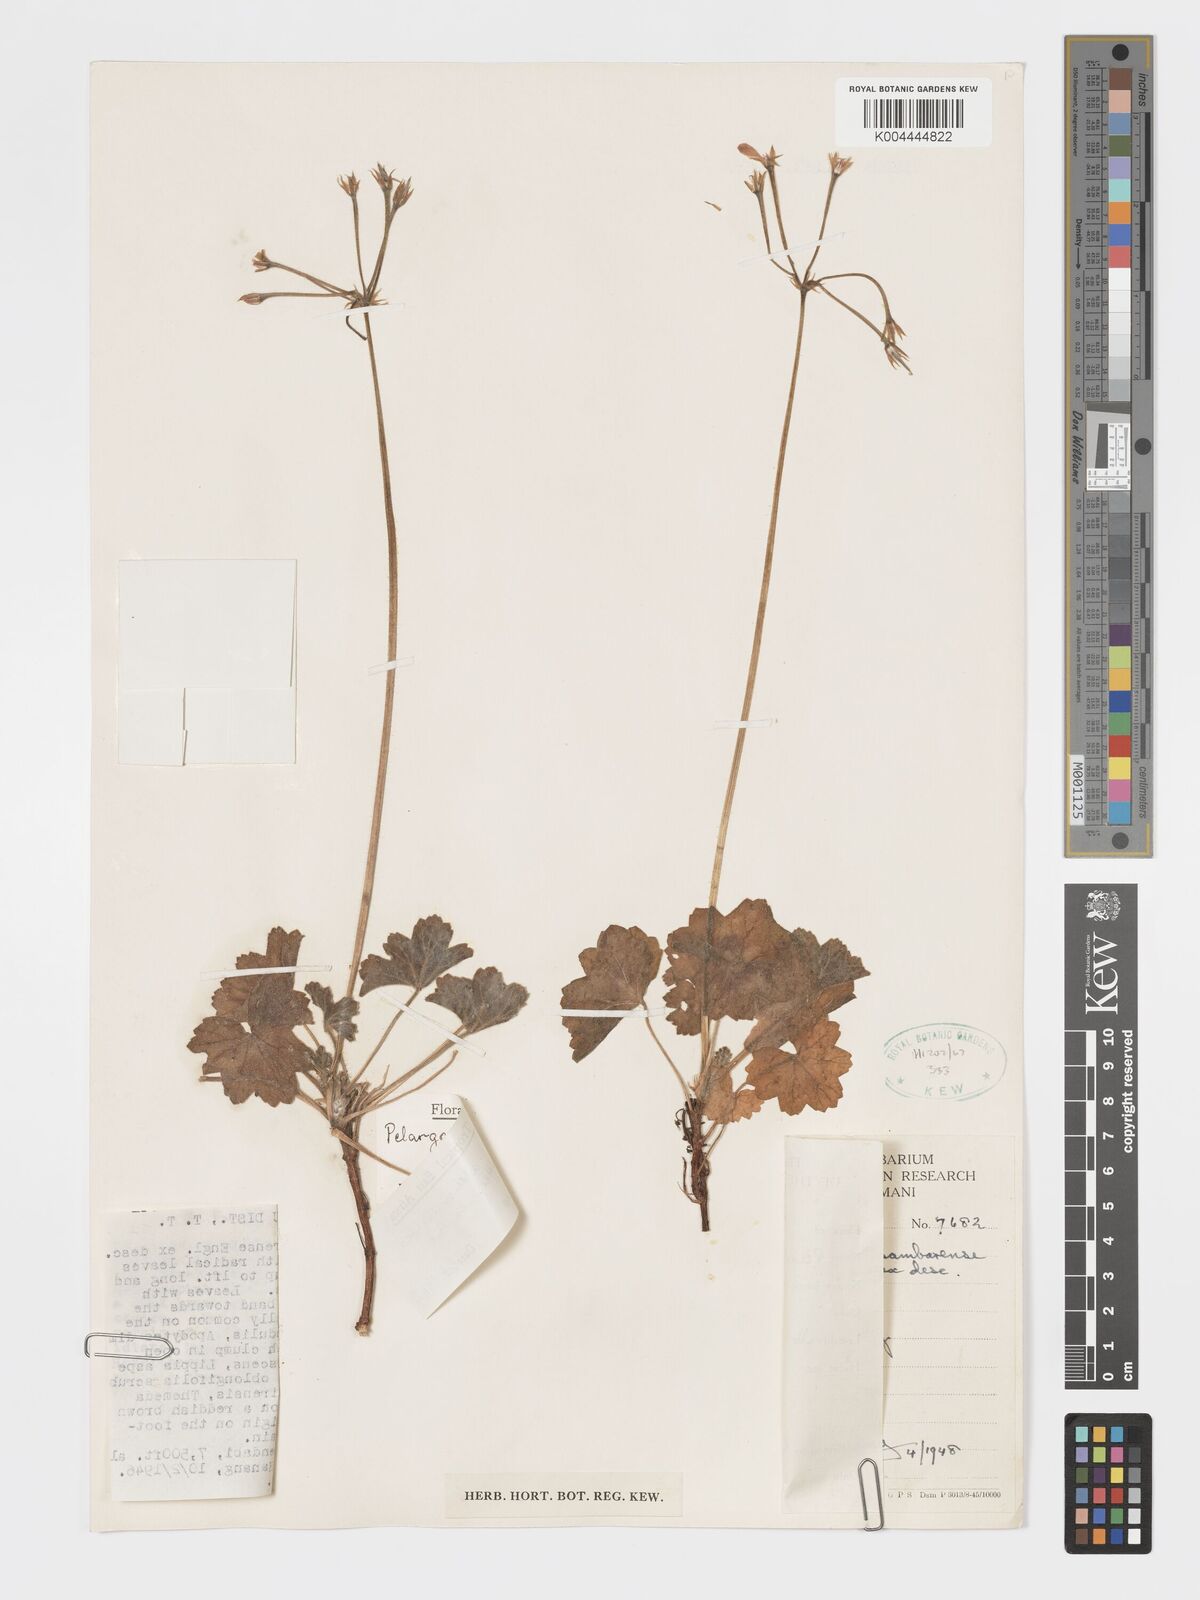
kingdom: Plantae
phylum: Tracheophyta
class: Magnoliopsida
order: Geraniales
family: Geraniaceae
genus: Pelargonium
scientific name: Pelargonium alchemilloides
